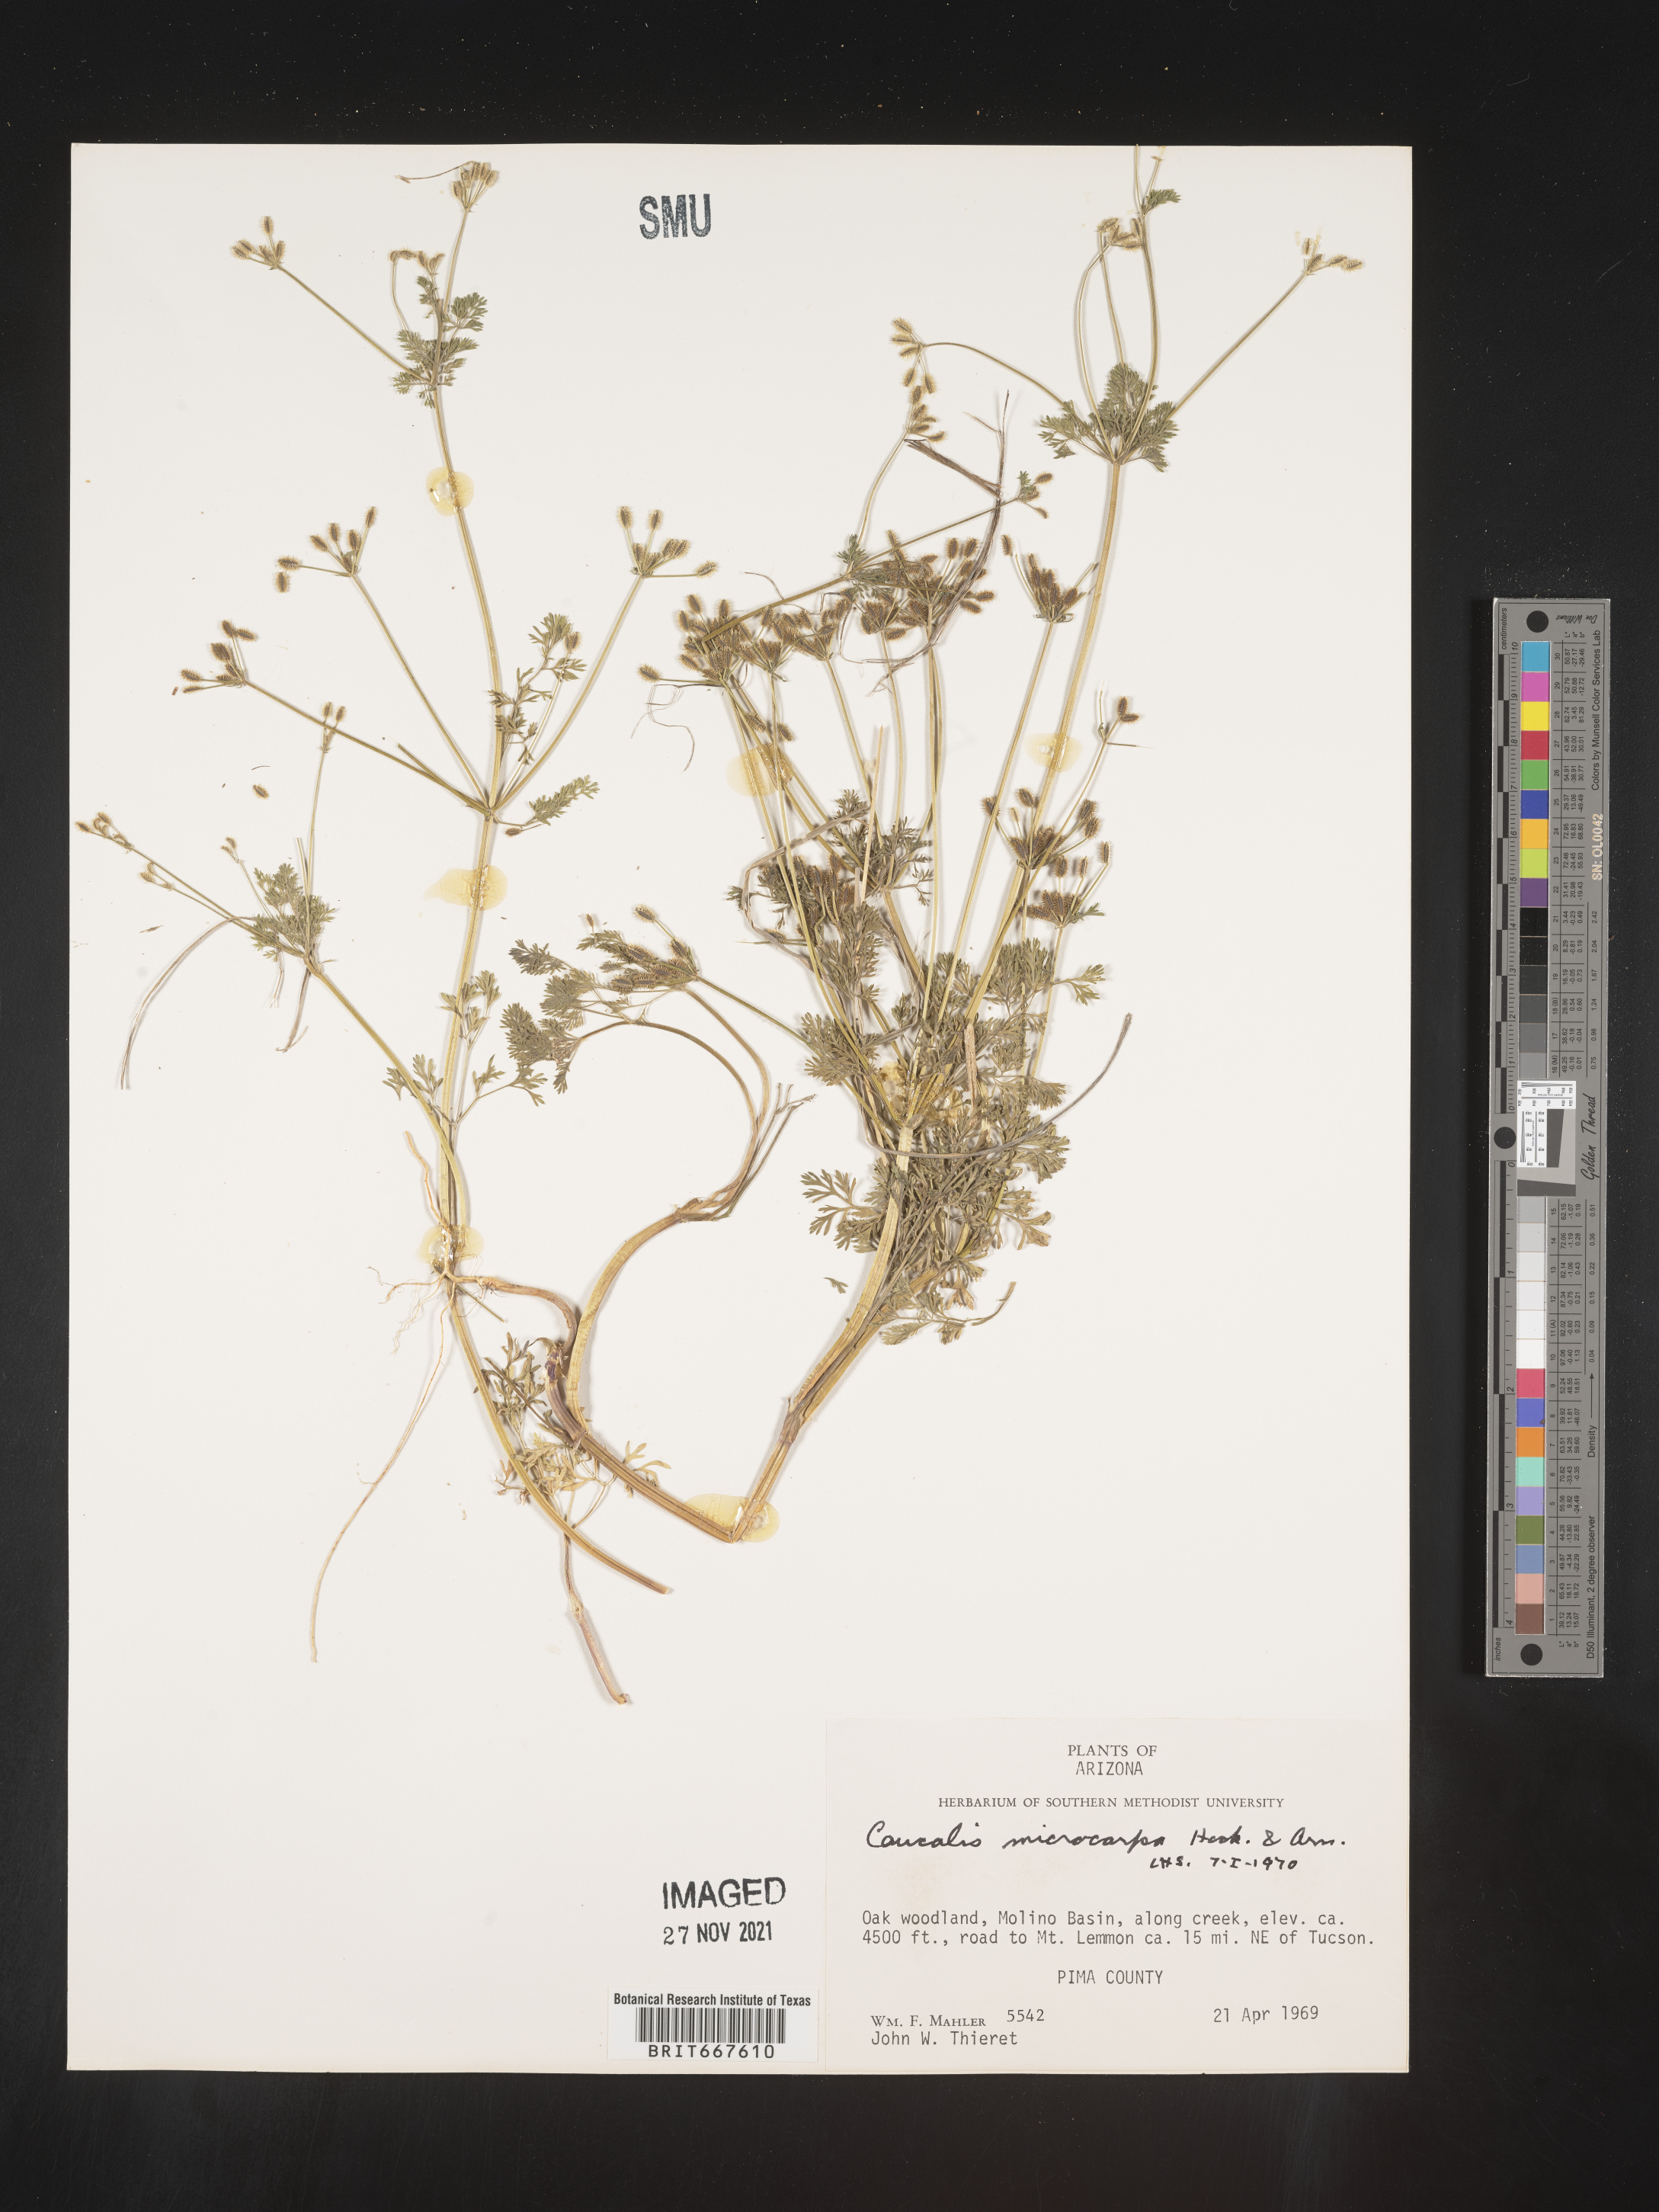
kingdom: Plantae
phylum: Tracheophyta
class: Magnoliopsida
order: Apiales
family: Apiaceae
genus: Caucalis
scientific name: Caucalis
